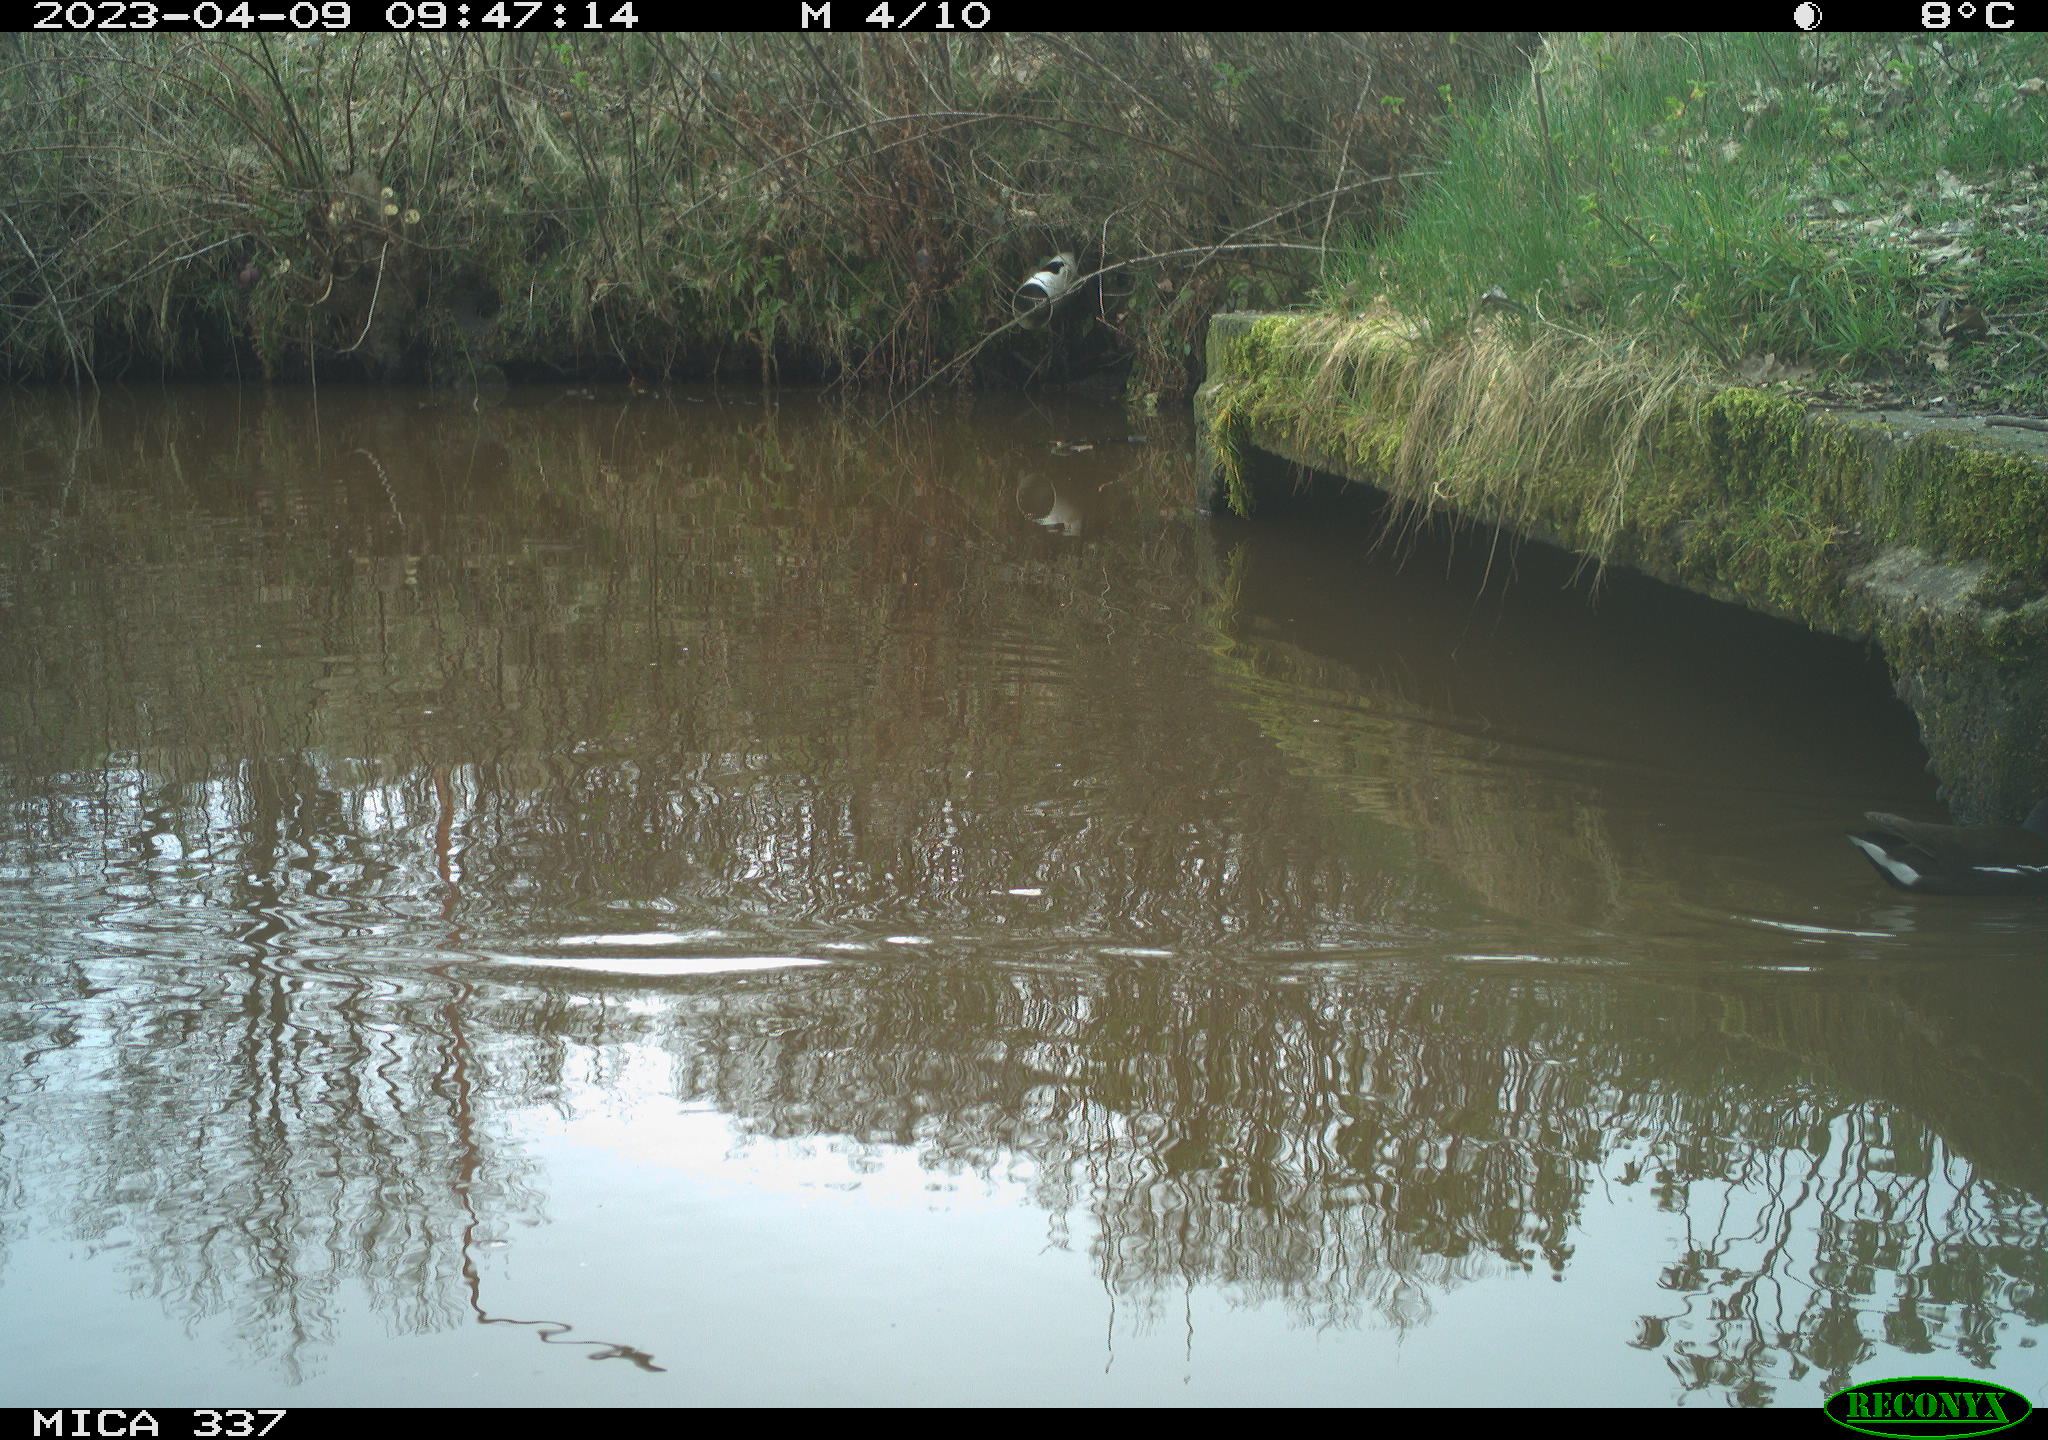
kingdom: Animalia
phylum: Chordata
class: Aves
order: Gruiformes
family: Rallidae
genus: Gallinula
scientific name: Gallinula chloropus
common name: Common moorhen
